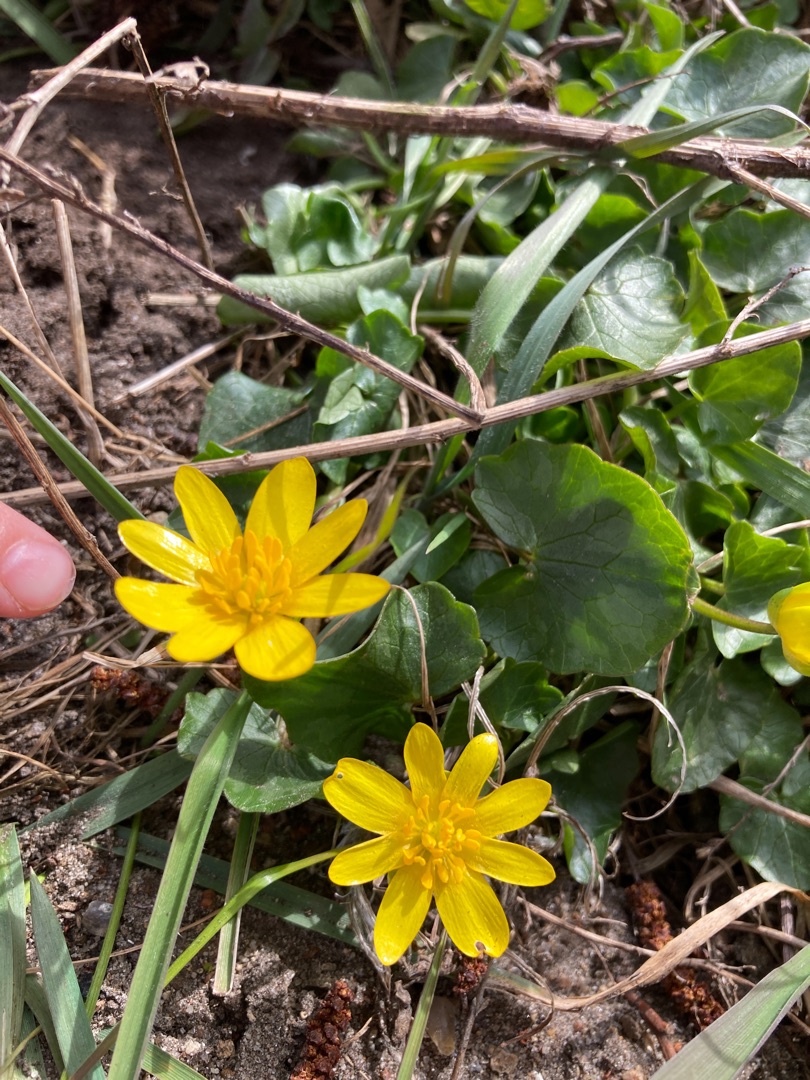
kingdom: Plantae
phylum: Tracheophyta
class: Magnoliopsida
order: Ranunculales
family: Ranunculaceae
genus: Ficaria
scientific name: Ficaria verna
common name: Vorterod
